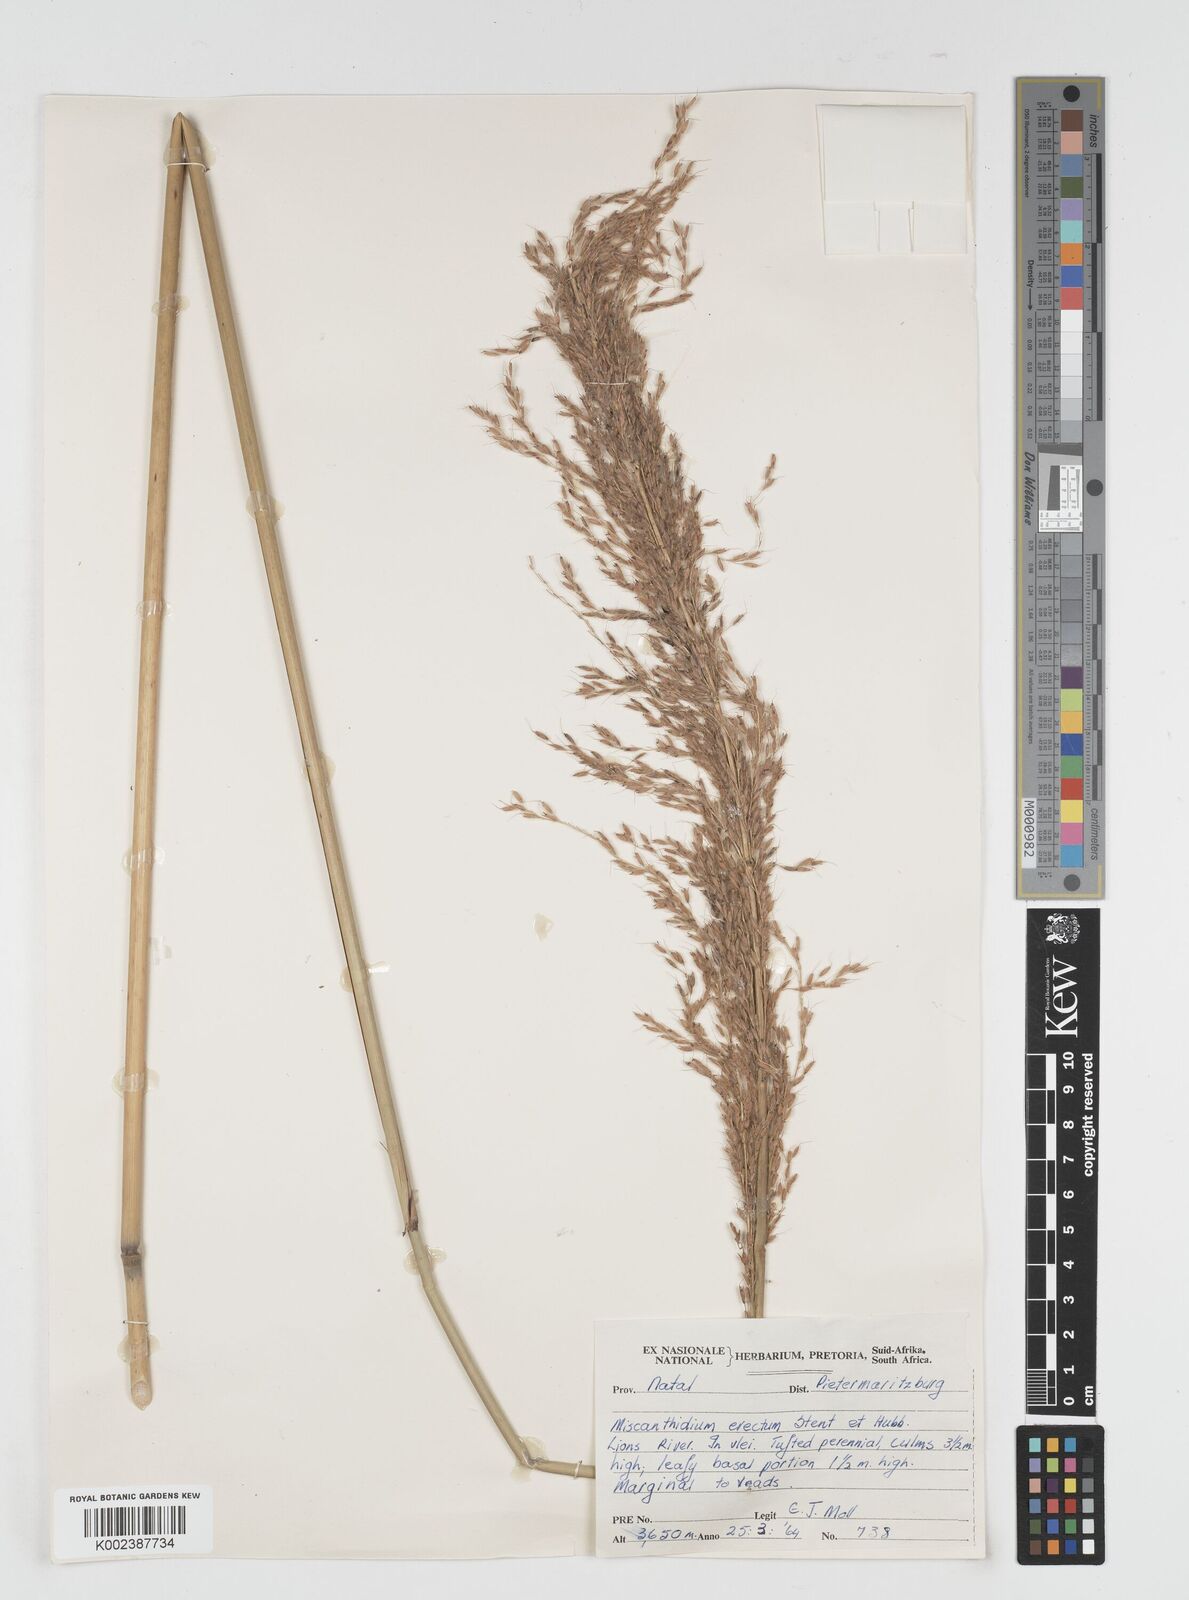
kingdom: Plantae
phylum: Tracheophyta
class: Liliopsida
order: Poales
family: Poaceae
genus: Miscanthus
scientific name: Miscanthus ecklonii
